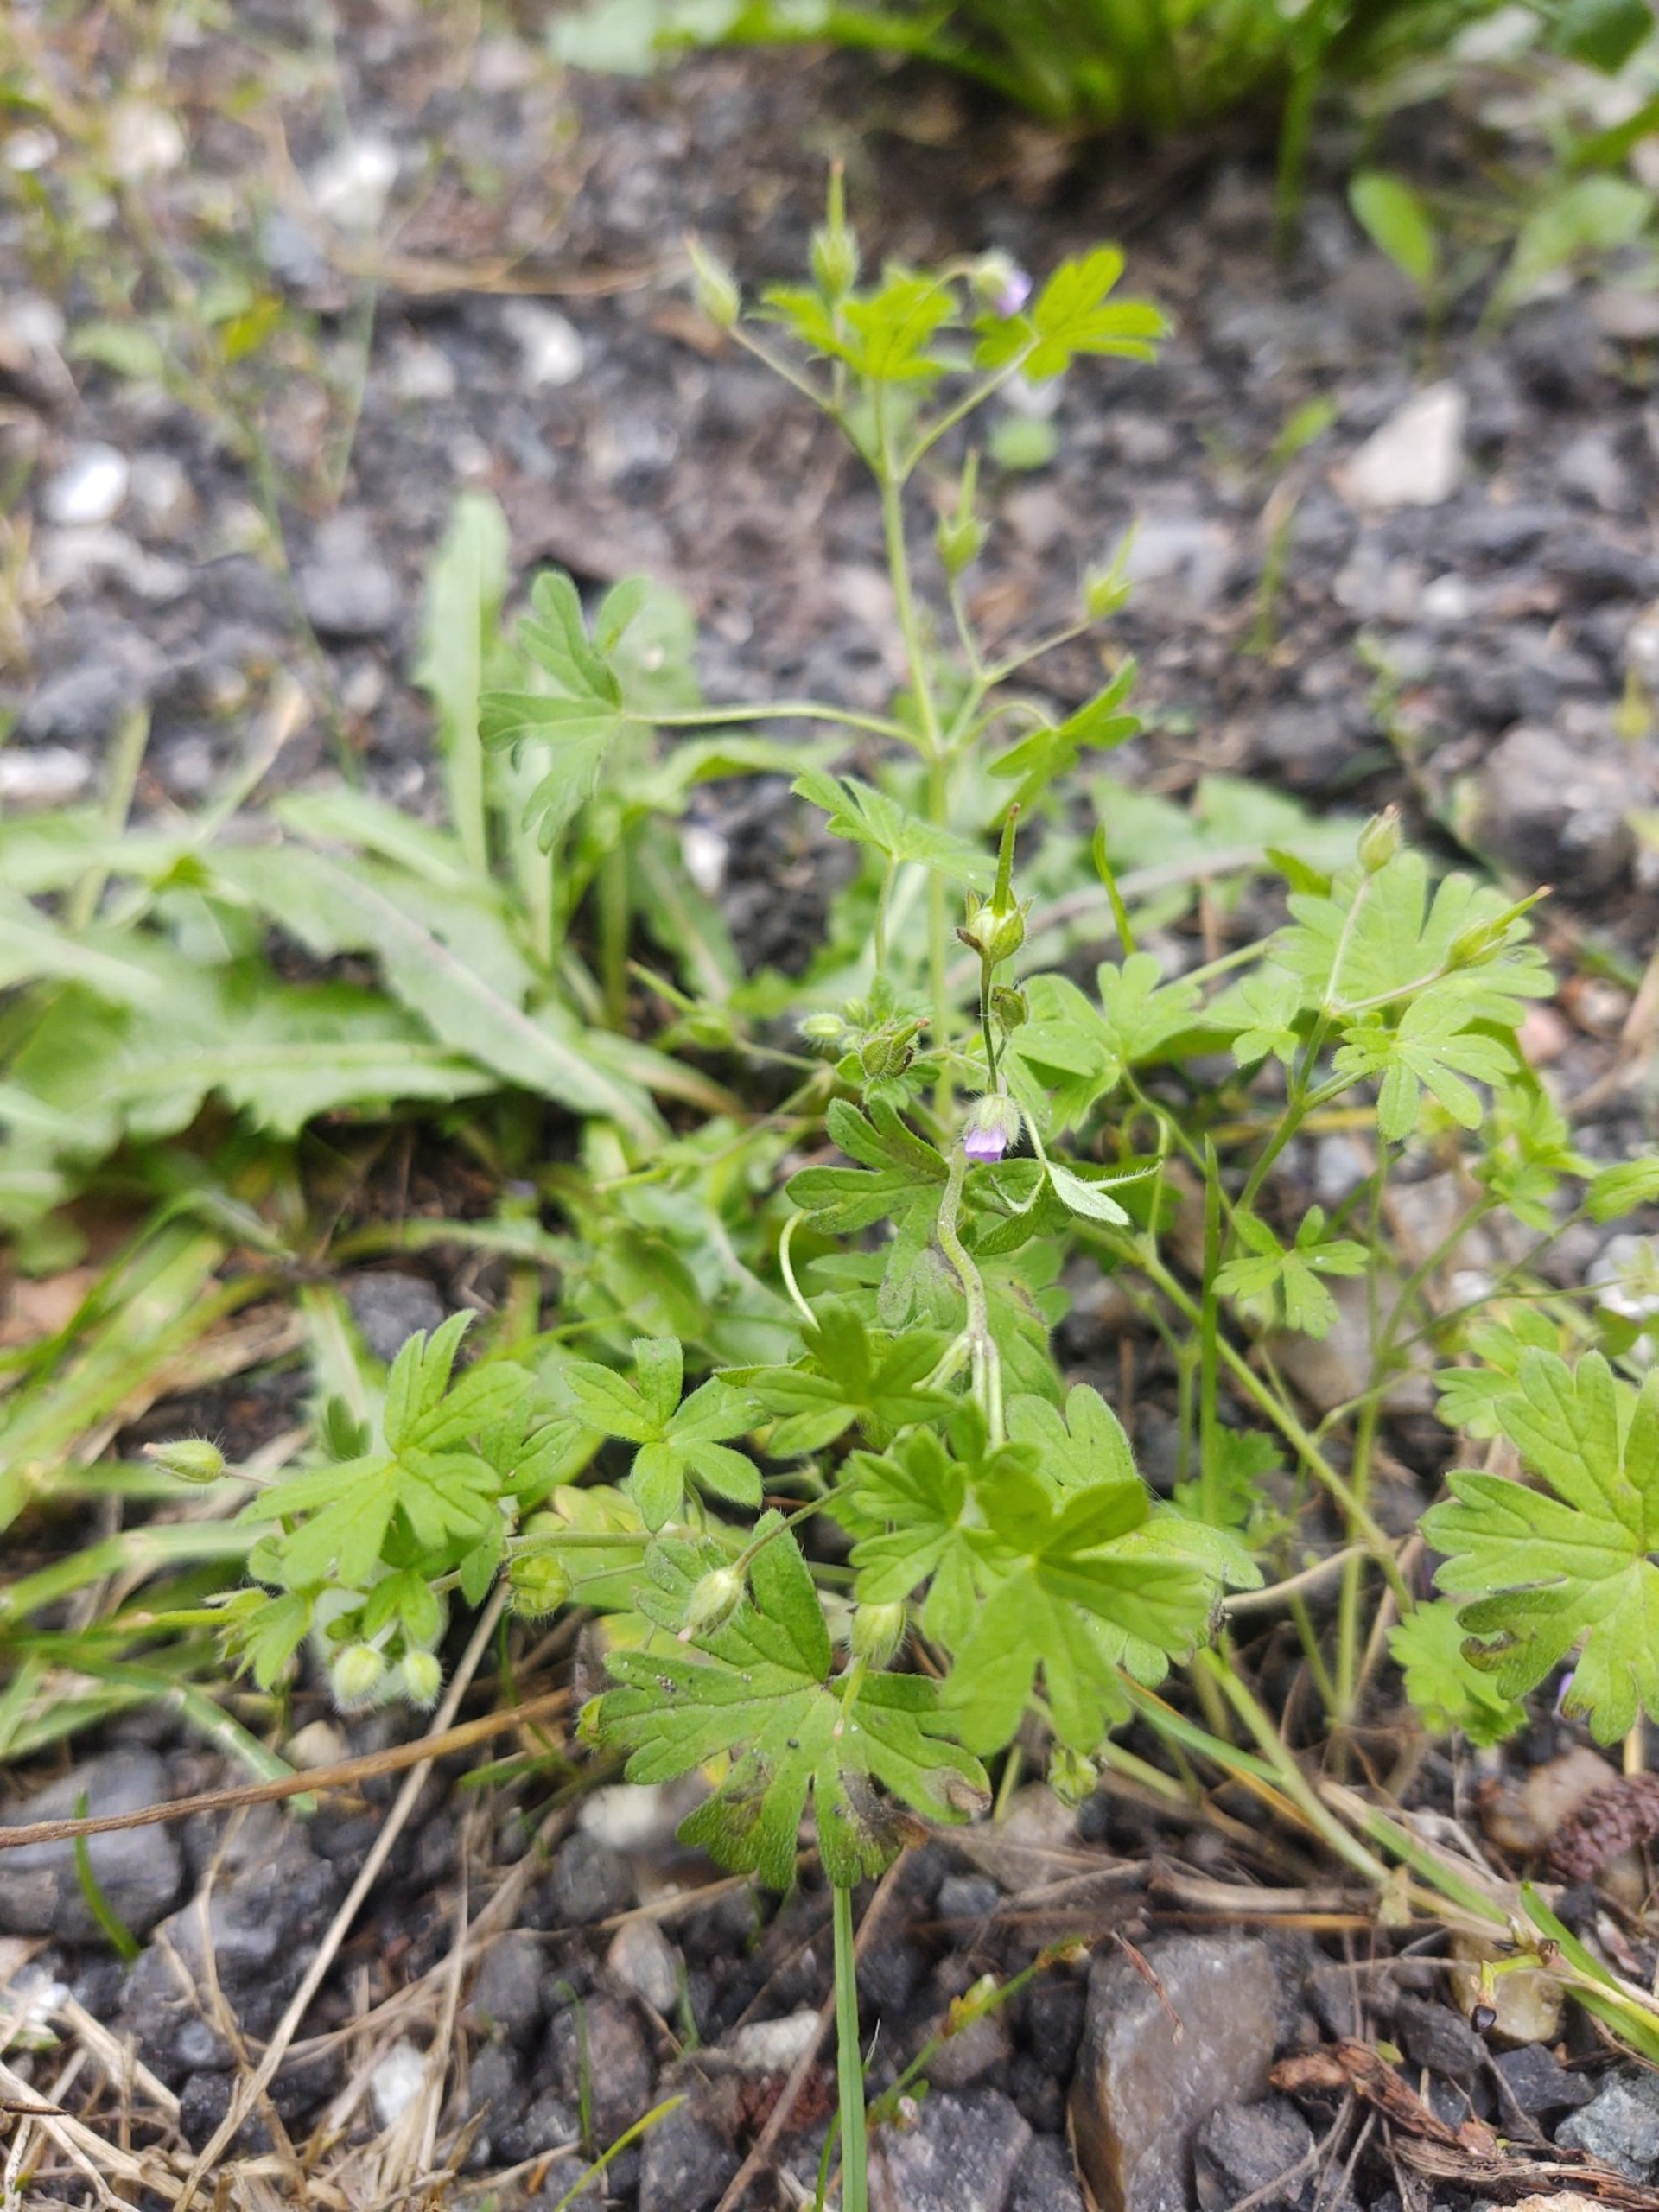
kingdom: Plantae
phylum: Tracheophyta
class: Magnoliopsida
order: Geraniales
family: Geraniaceae
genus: Geranium
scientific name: Geranium pusillum
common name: Liden storkenæb
